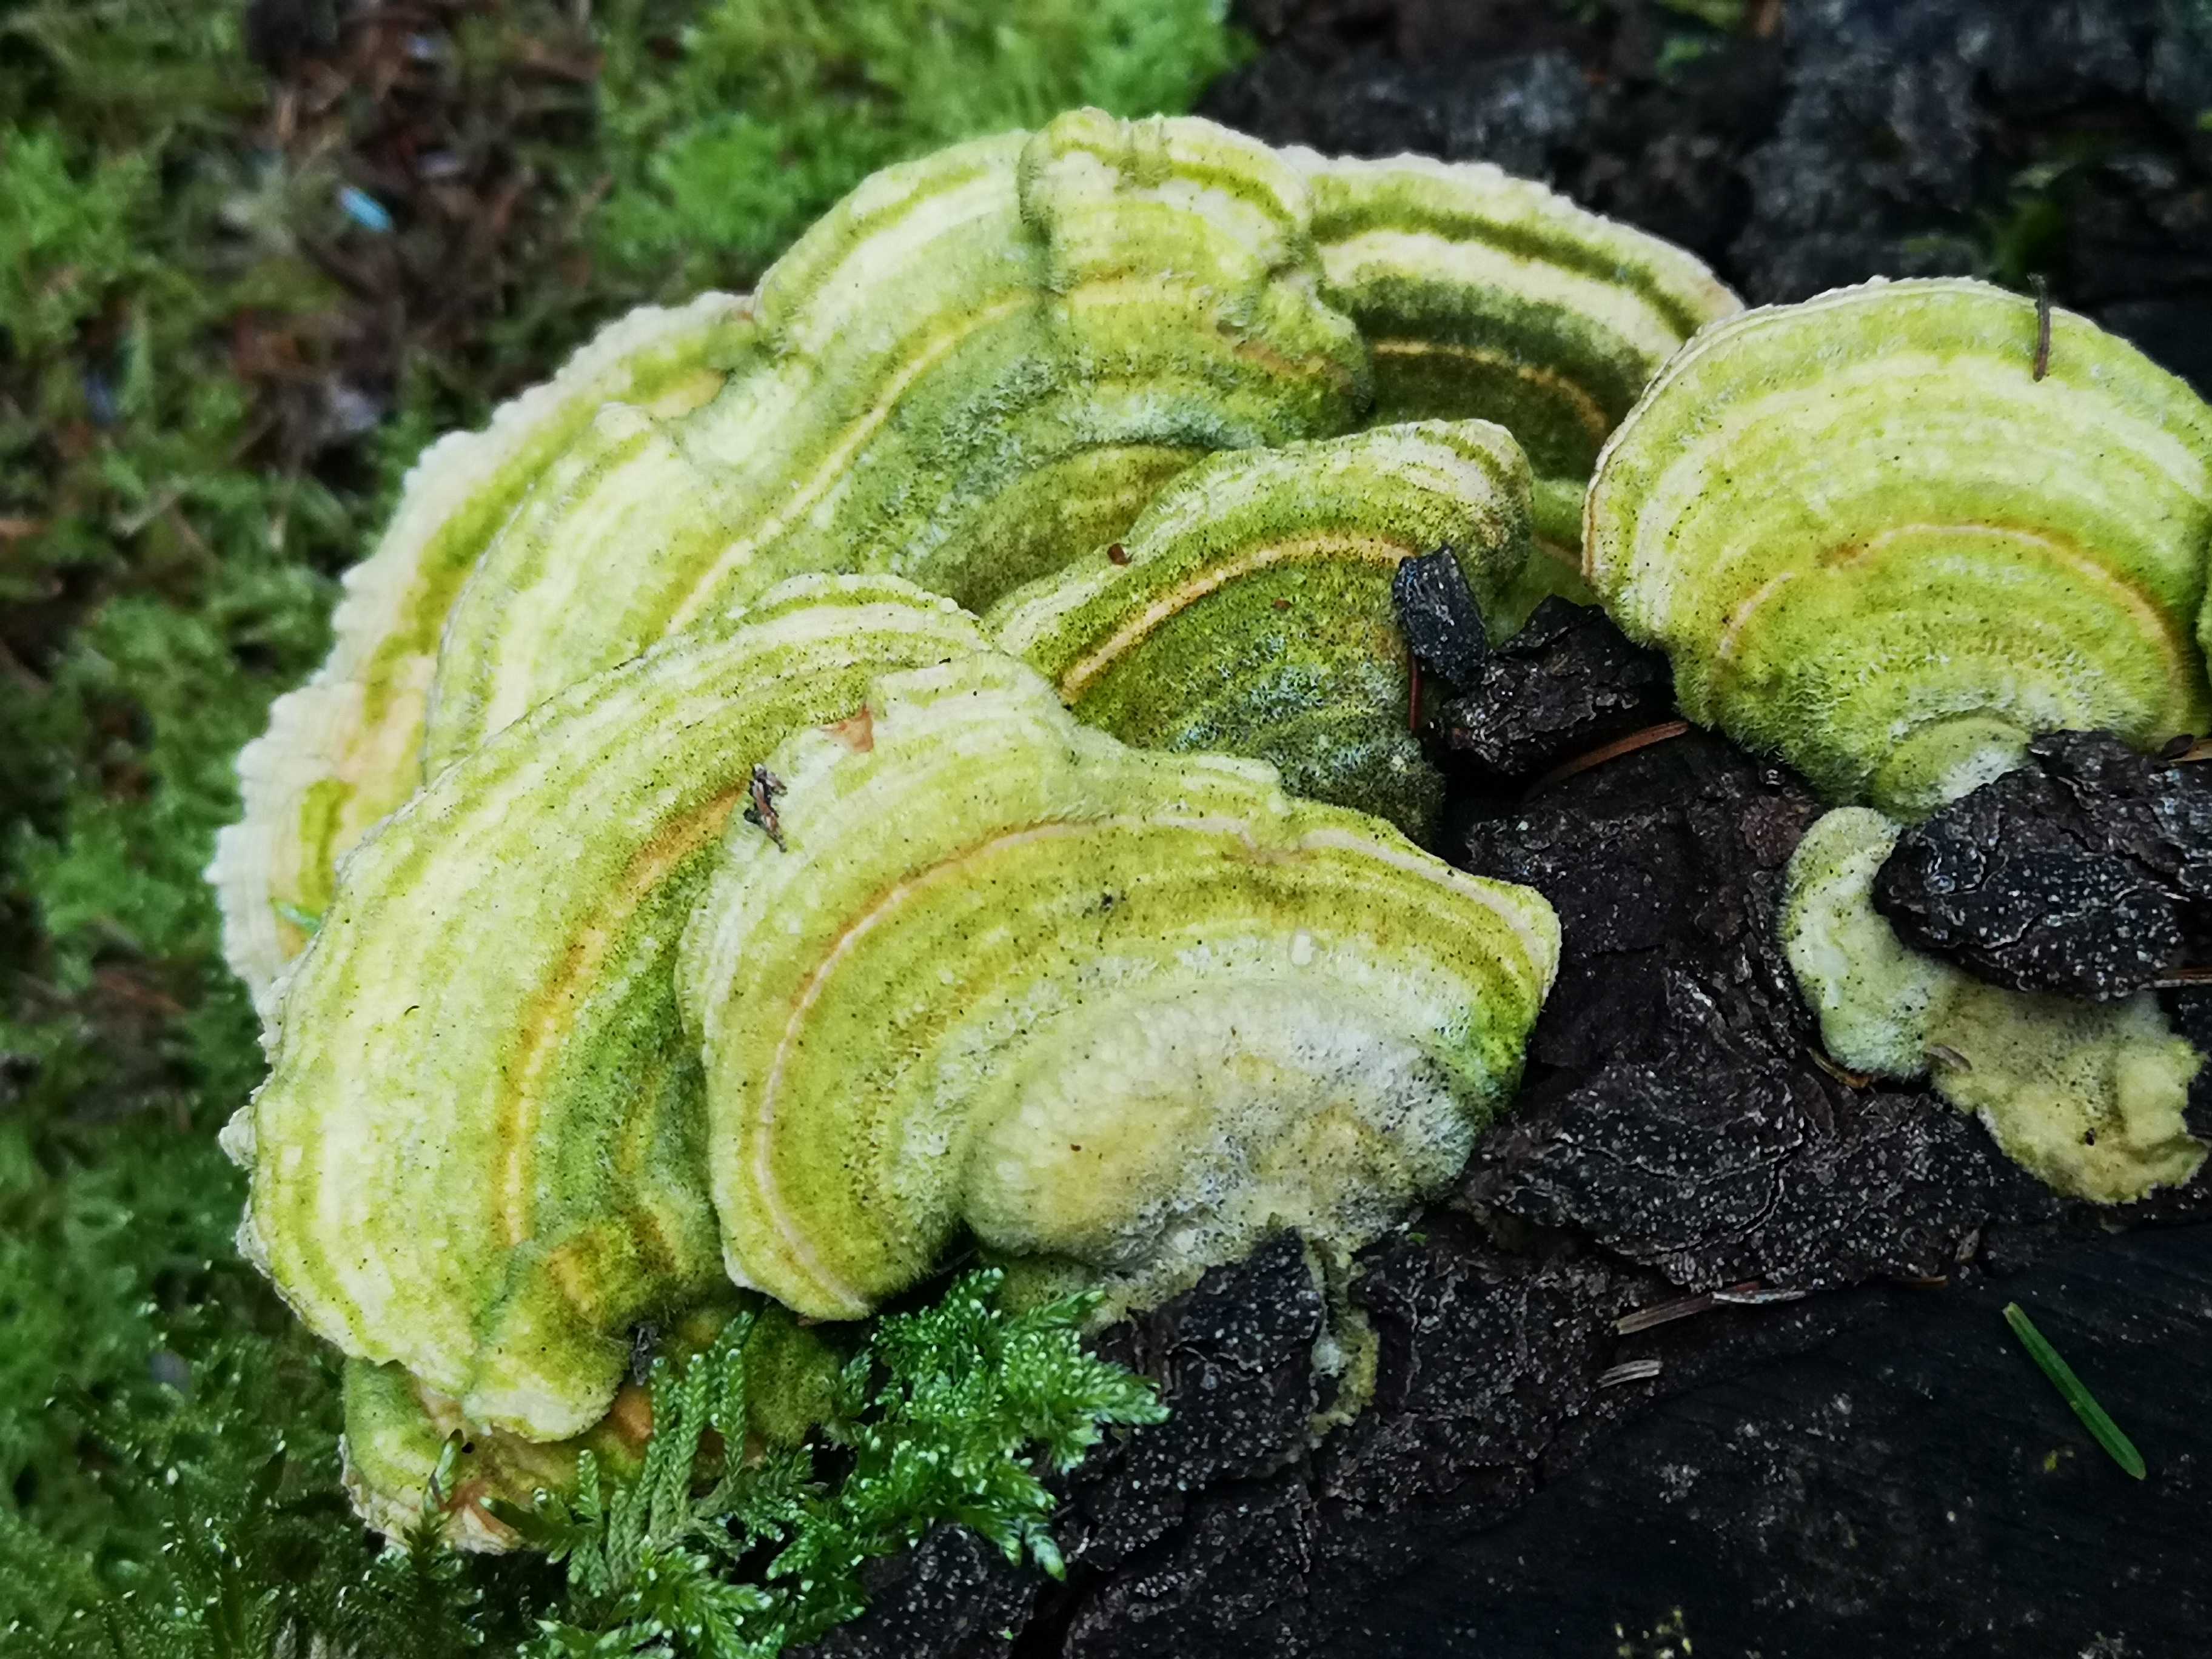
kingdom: Fungi
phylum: Basidiomycota
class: Agaricomycetes
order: Polyporales
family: Polyporaceae
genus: Lenzites
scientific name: Lenzites betulinus
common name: birke-læderporesvamp
